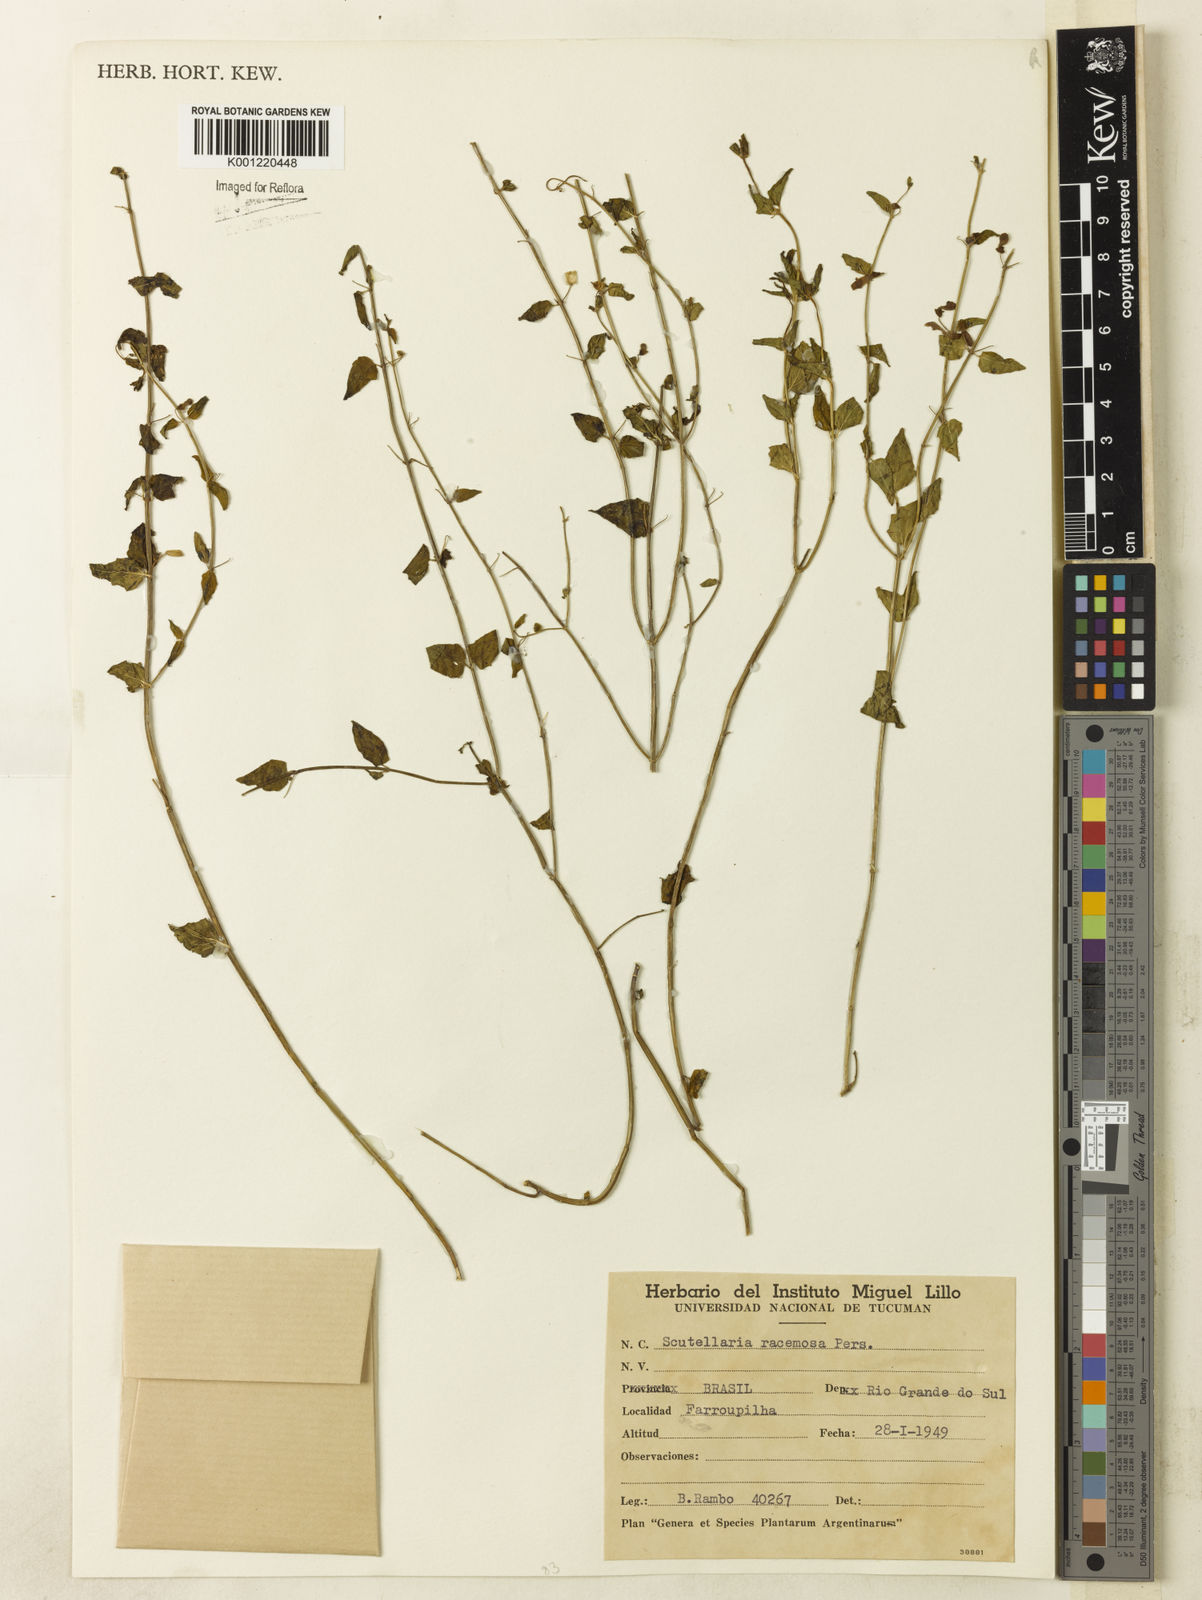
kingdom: Plantae
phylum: Tracheophyta
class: Magnoliopsida
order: Lamiales
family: Lamiaceae
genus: Scutellaria
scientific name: Scutellaria racemosa
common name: South american skullcap
